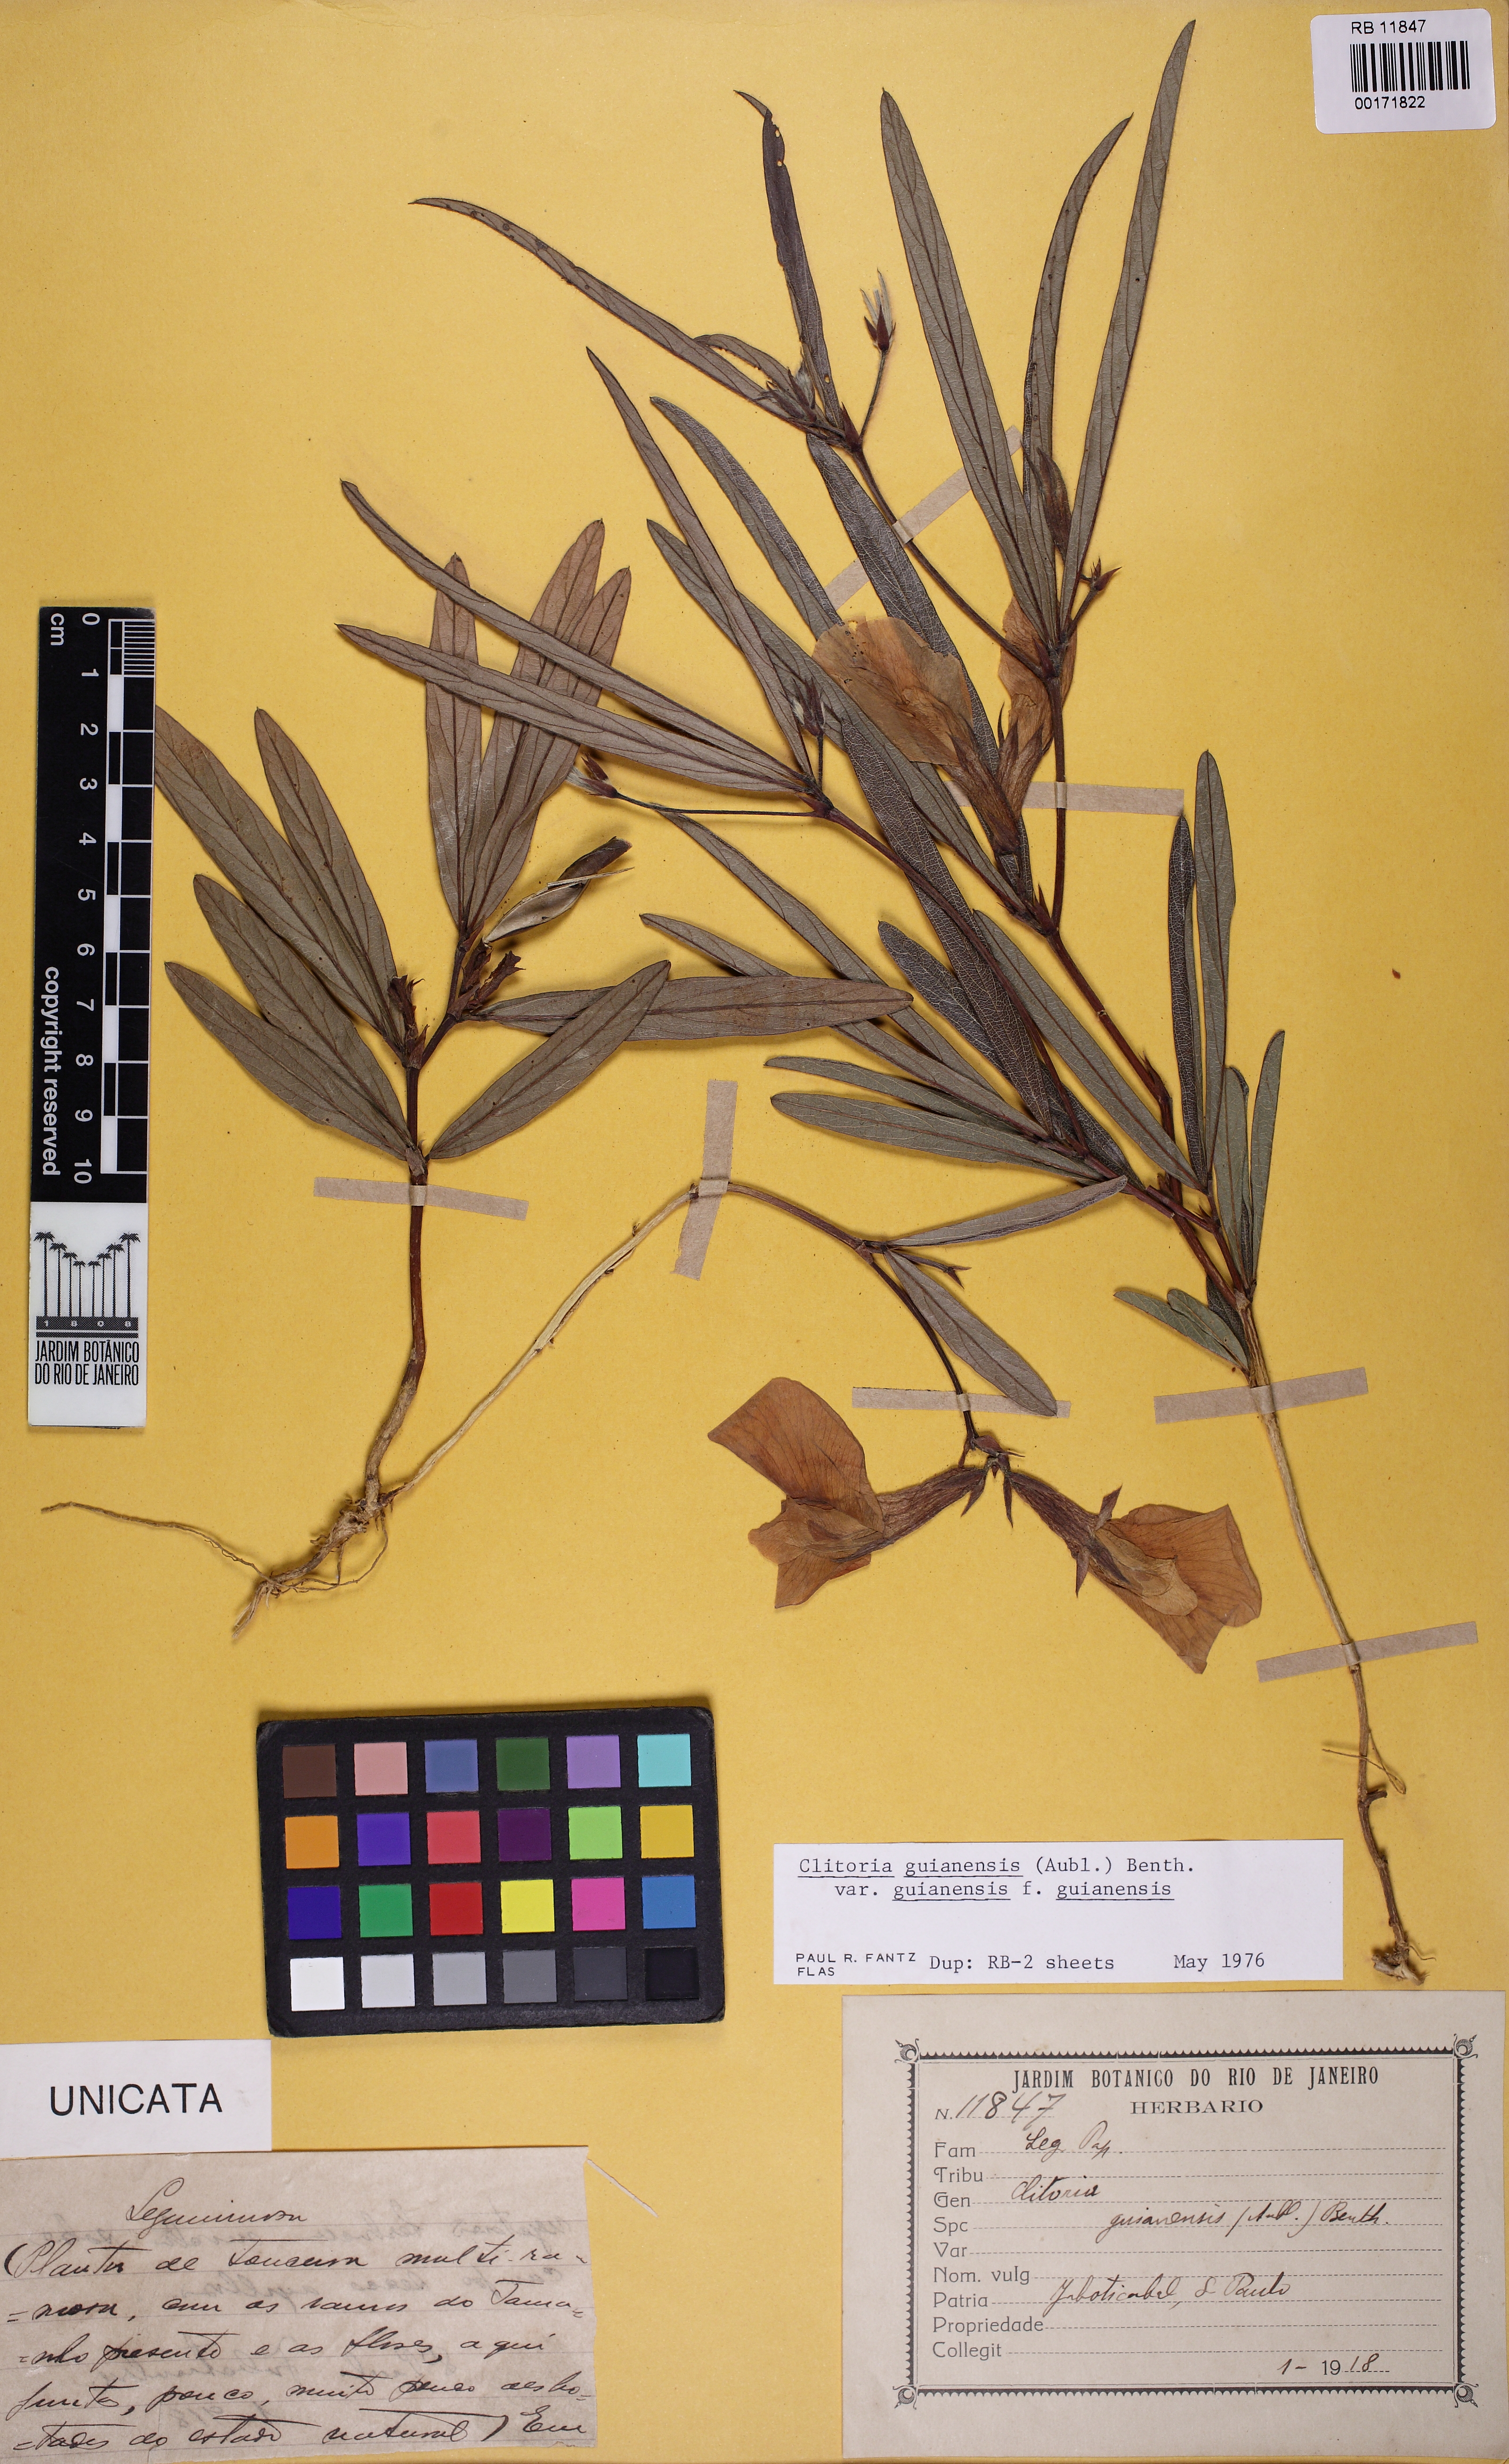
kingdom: Plantae
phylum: Tracheophyta
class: Magnoliopsida
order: Fabales
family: Fabaceae
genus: Clitoria
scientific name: Clitoria guianensis
